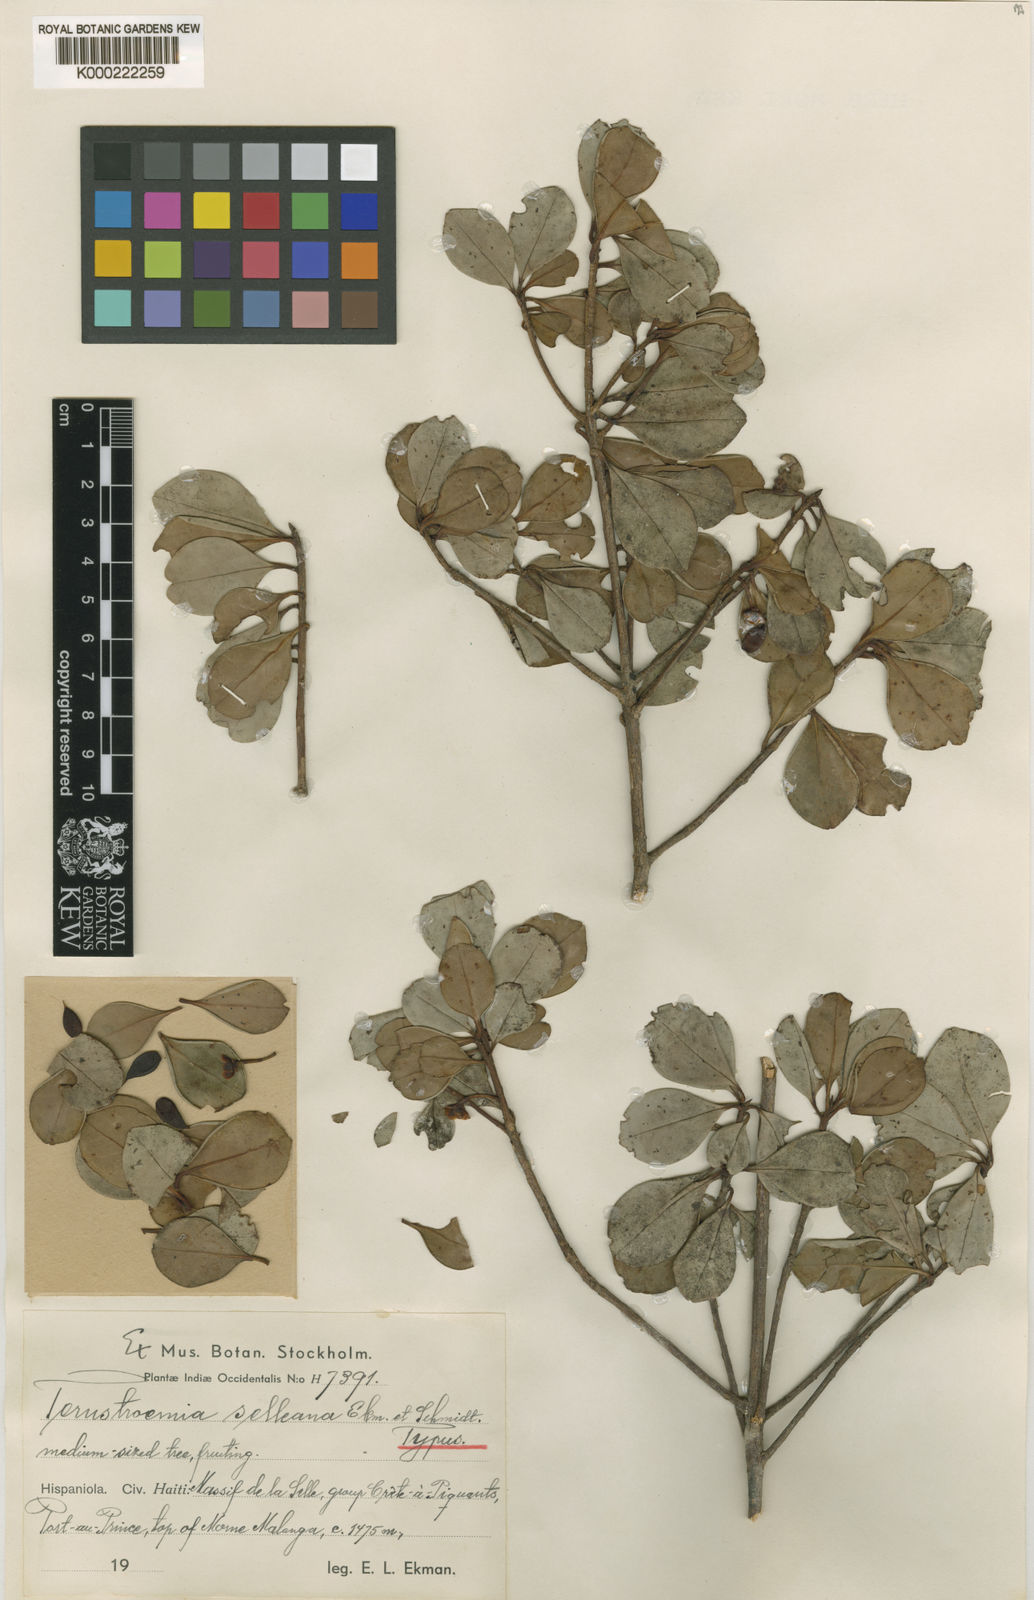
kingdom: Plantae
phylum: Tracheophyta
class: Magnoliopsida
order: Ericales
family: Pentaphylacaceae
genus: Ternstroemia
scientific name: Ternstroemia selleana
